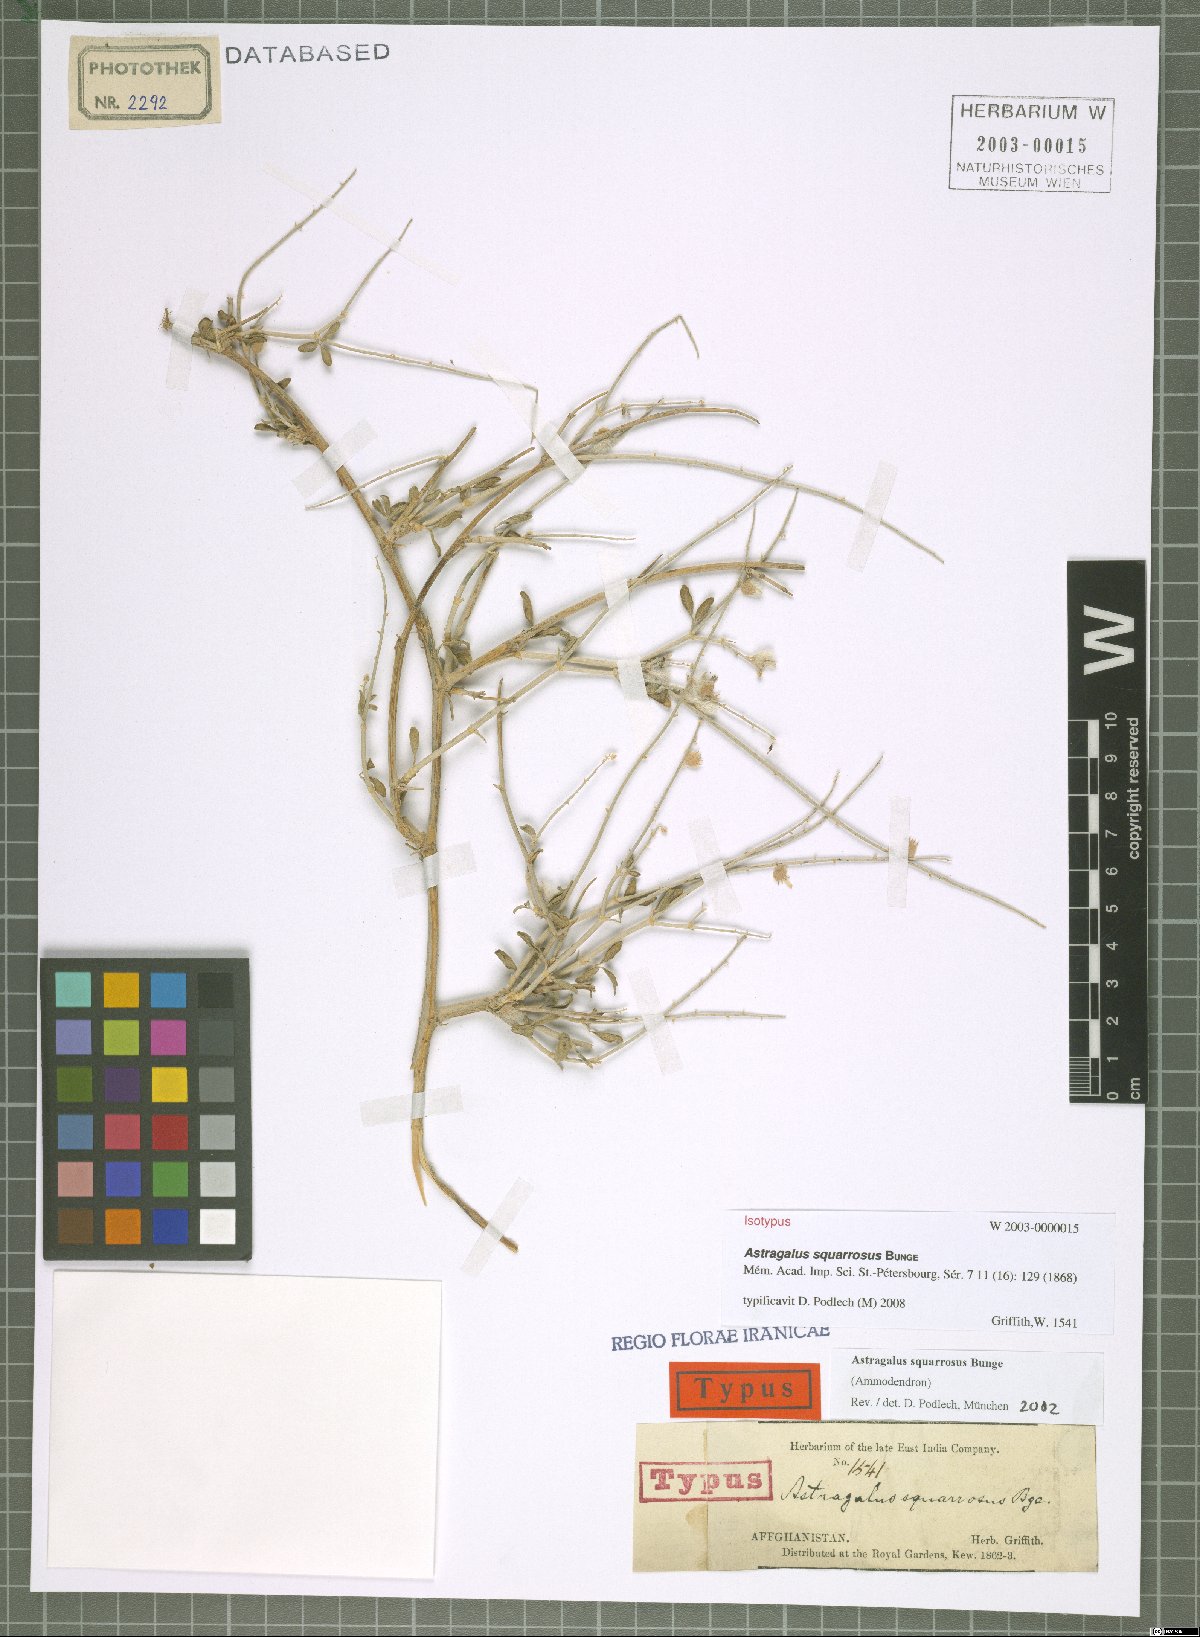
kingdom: Plantae
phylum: Tracheophyta
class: Magnoliopsida
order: Fabales
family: Fabaceae
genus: Astragalus
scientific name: Astragalus squarrosus
